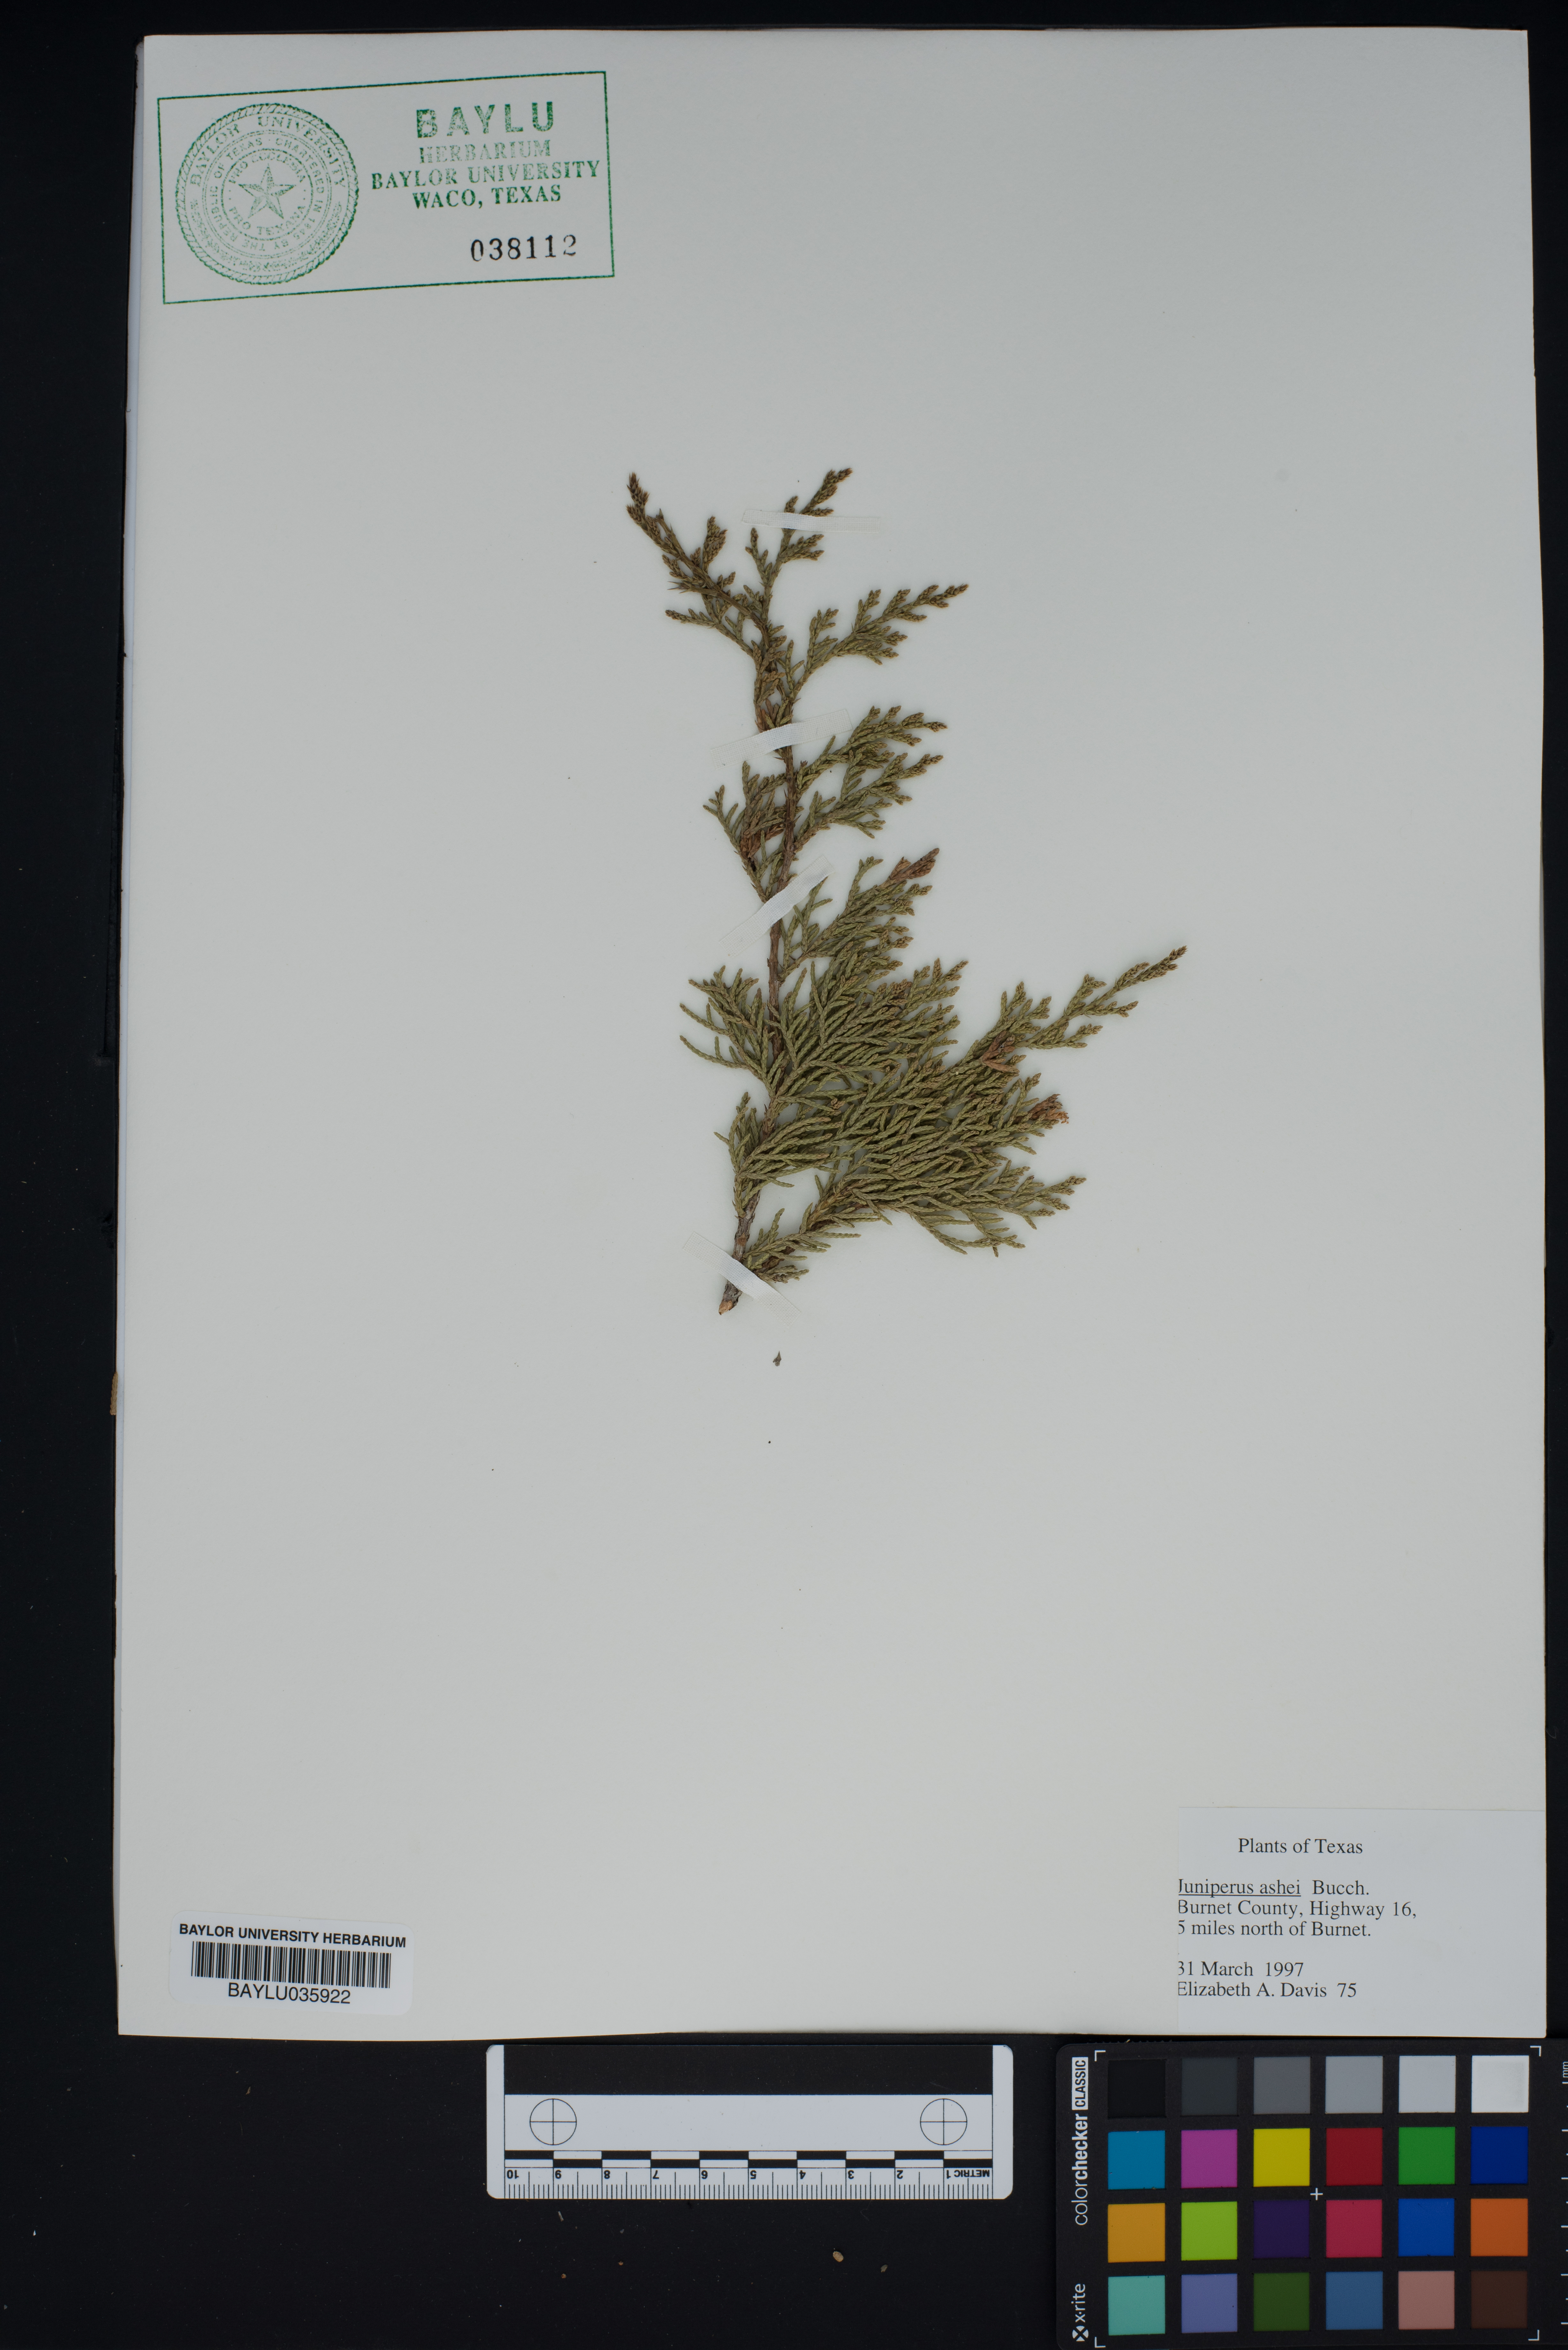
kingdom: Plantae
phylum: Tracheophyta
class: Pinopsida
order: Pinales
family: Cupressaceae
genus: Juniperus
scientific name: Juniperus ashei
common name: Mexican juniper
